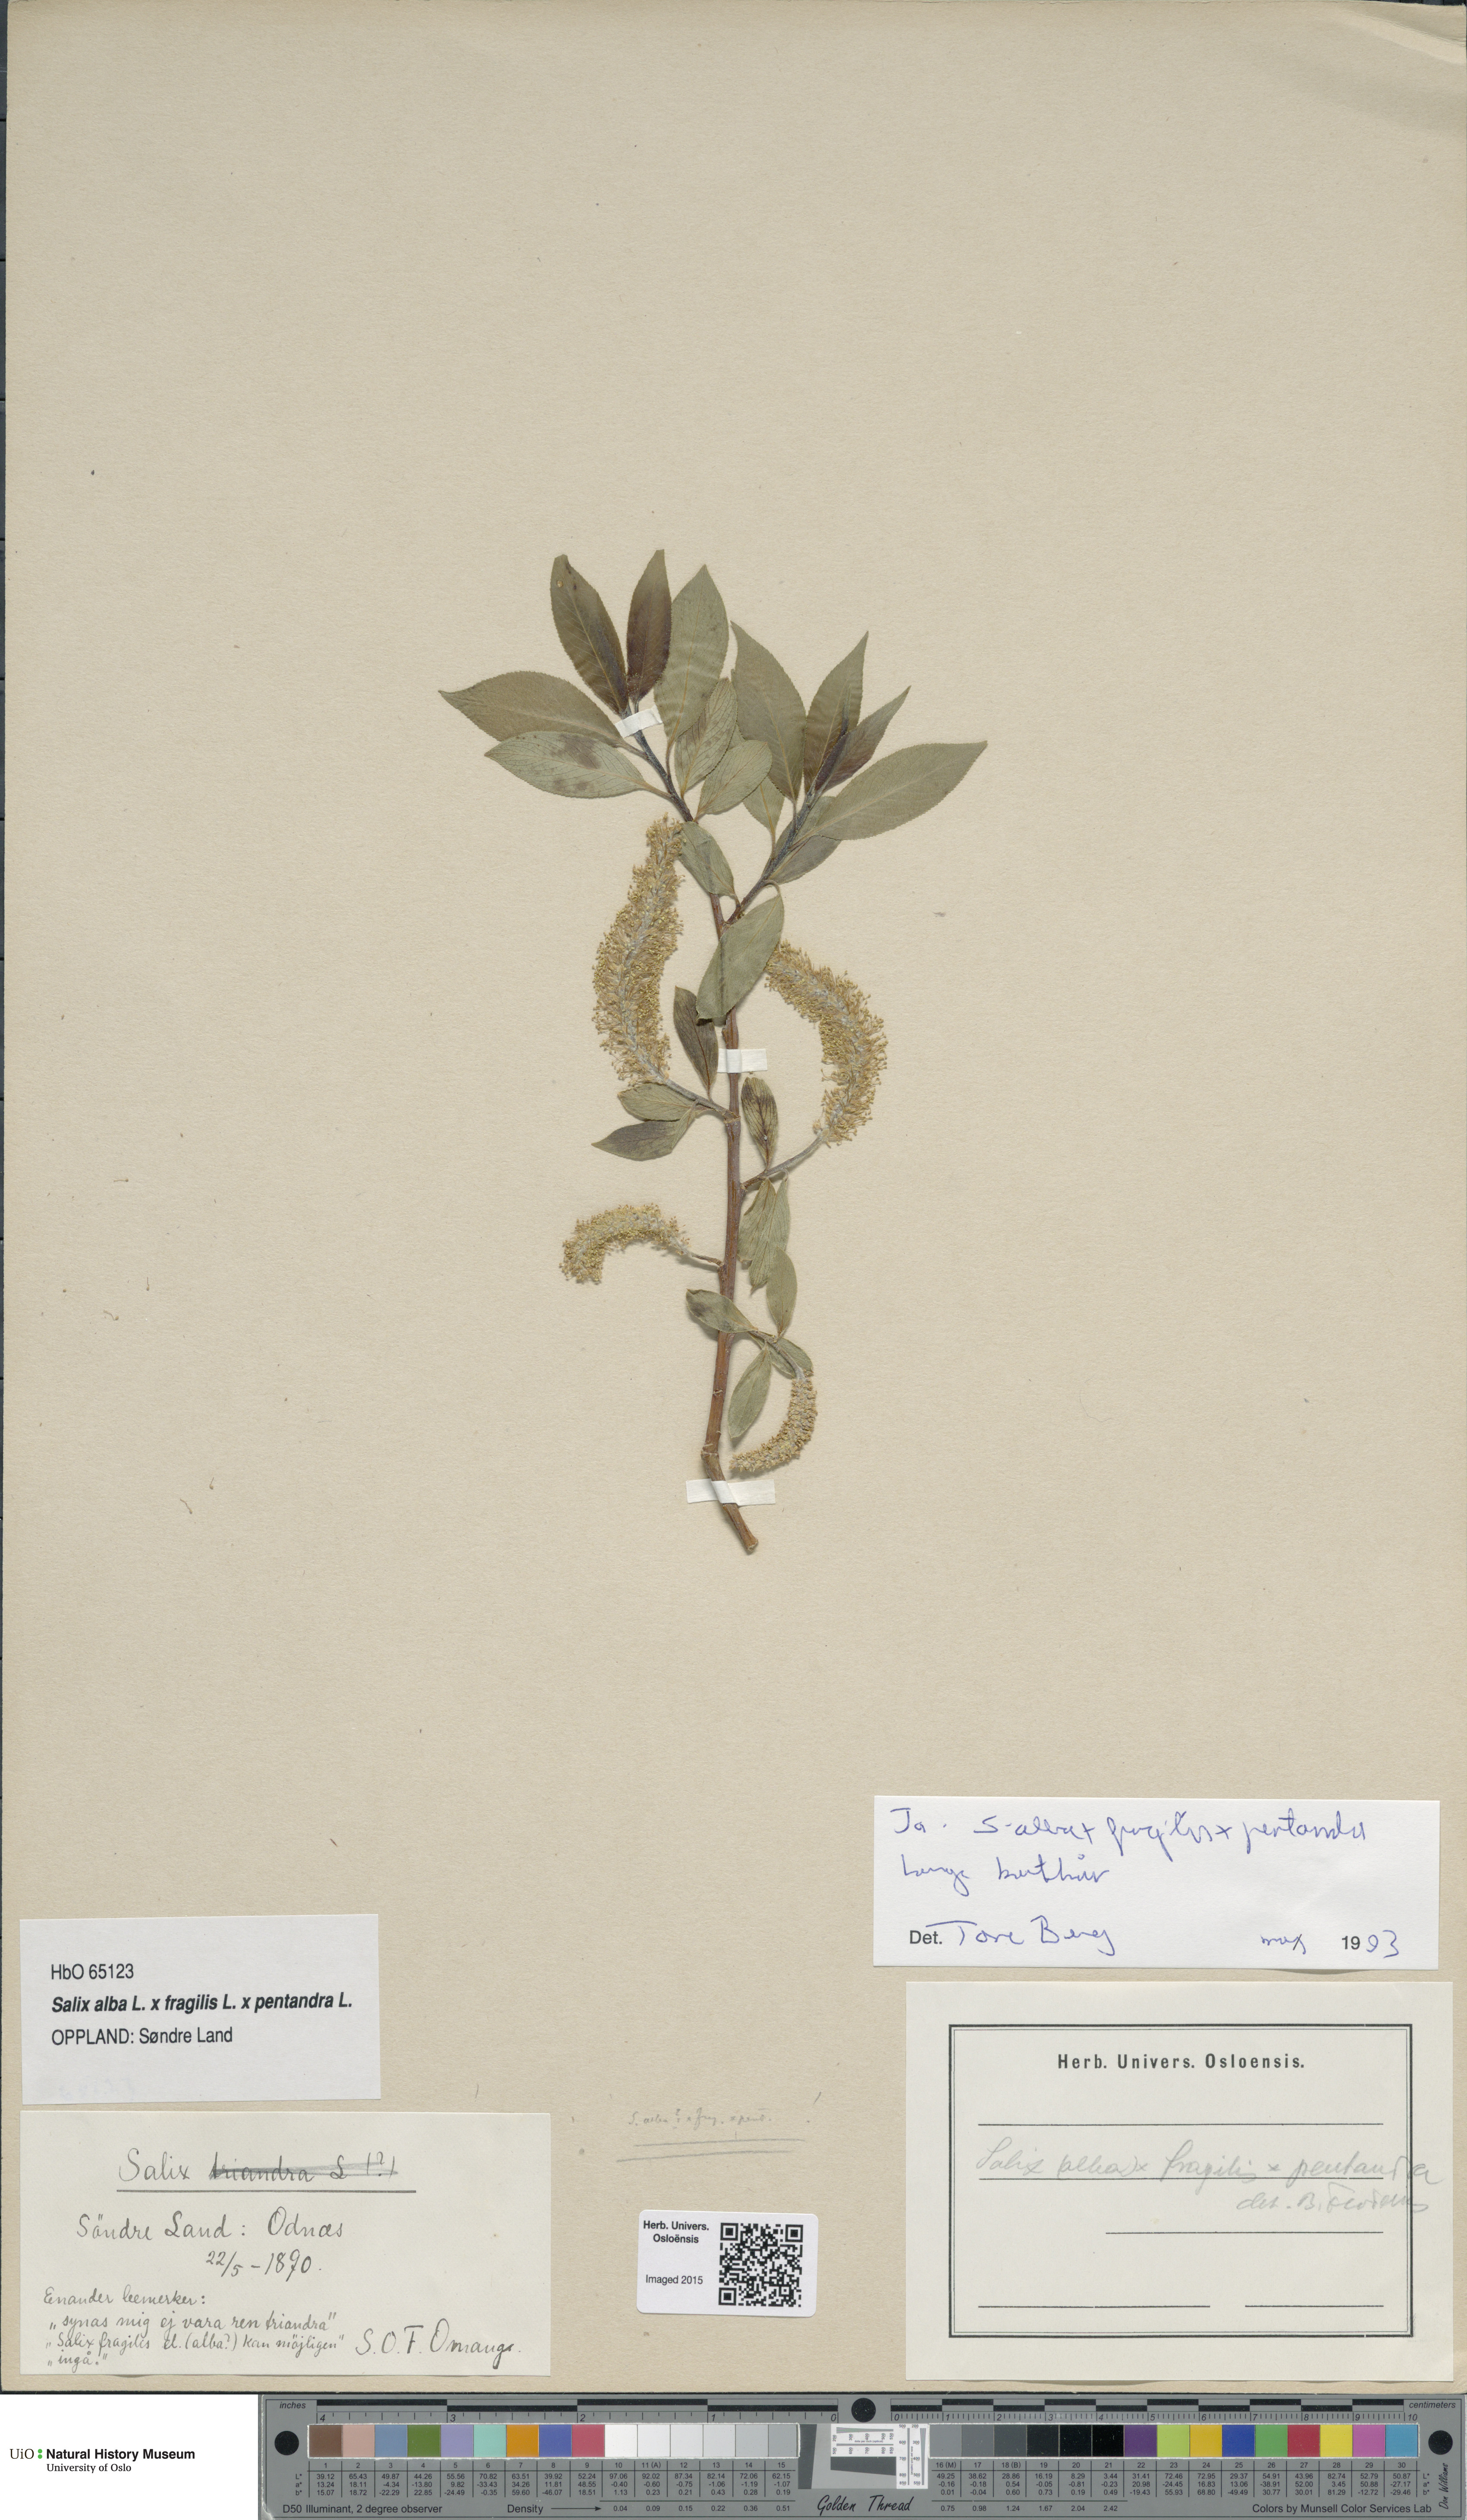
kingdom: Plantae
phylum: Tracheophyta
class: Magnoliopsida
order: Malpighiales
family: Salicaceae
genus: Salix
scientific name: Salix
